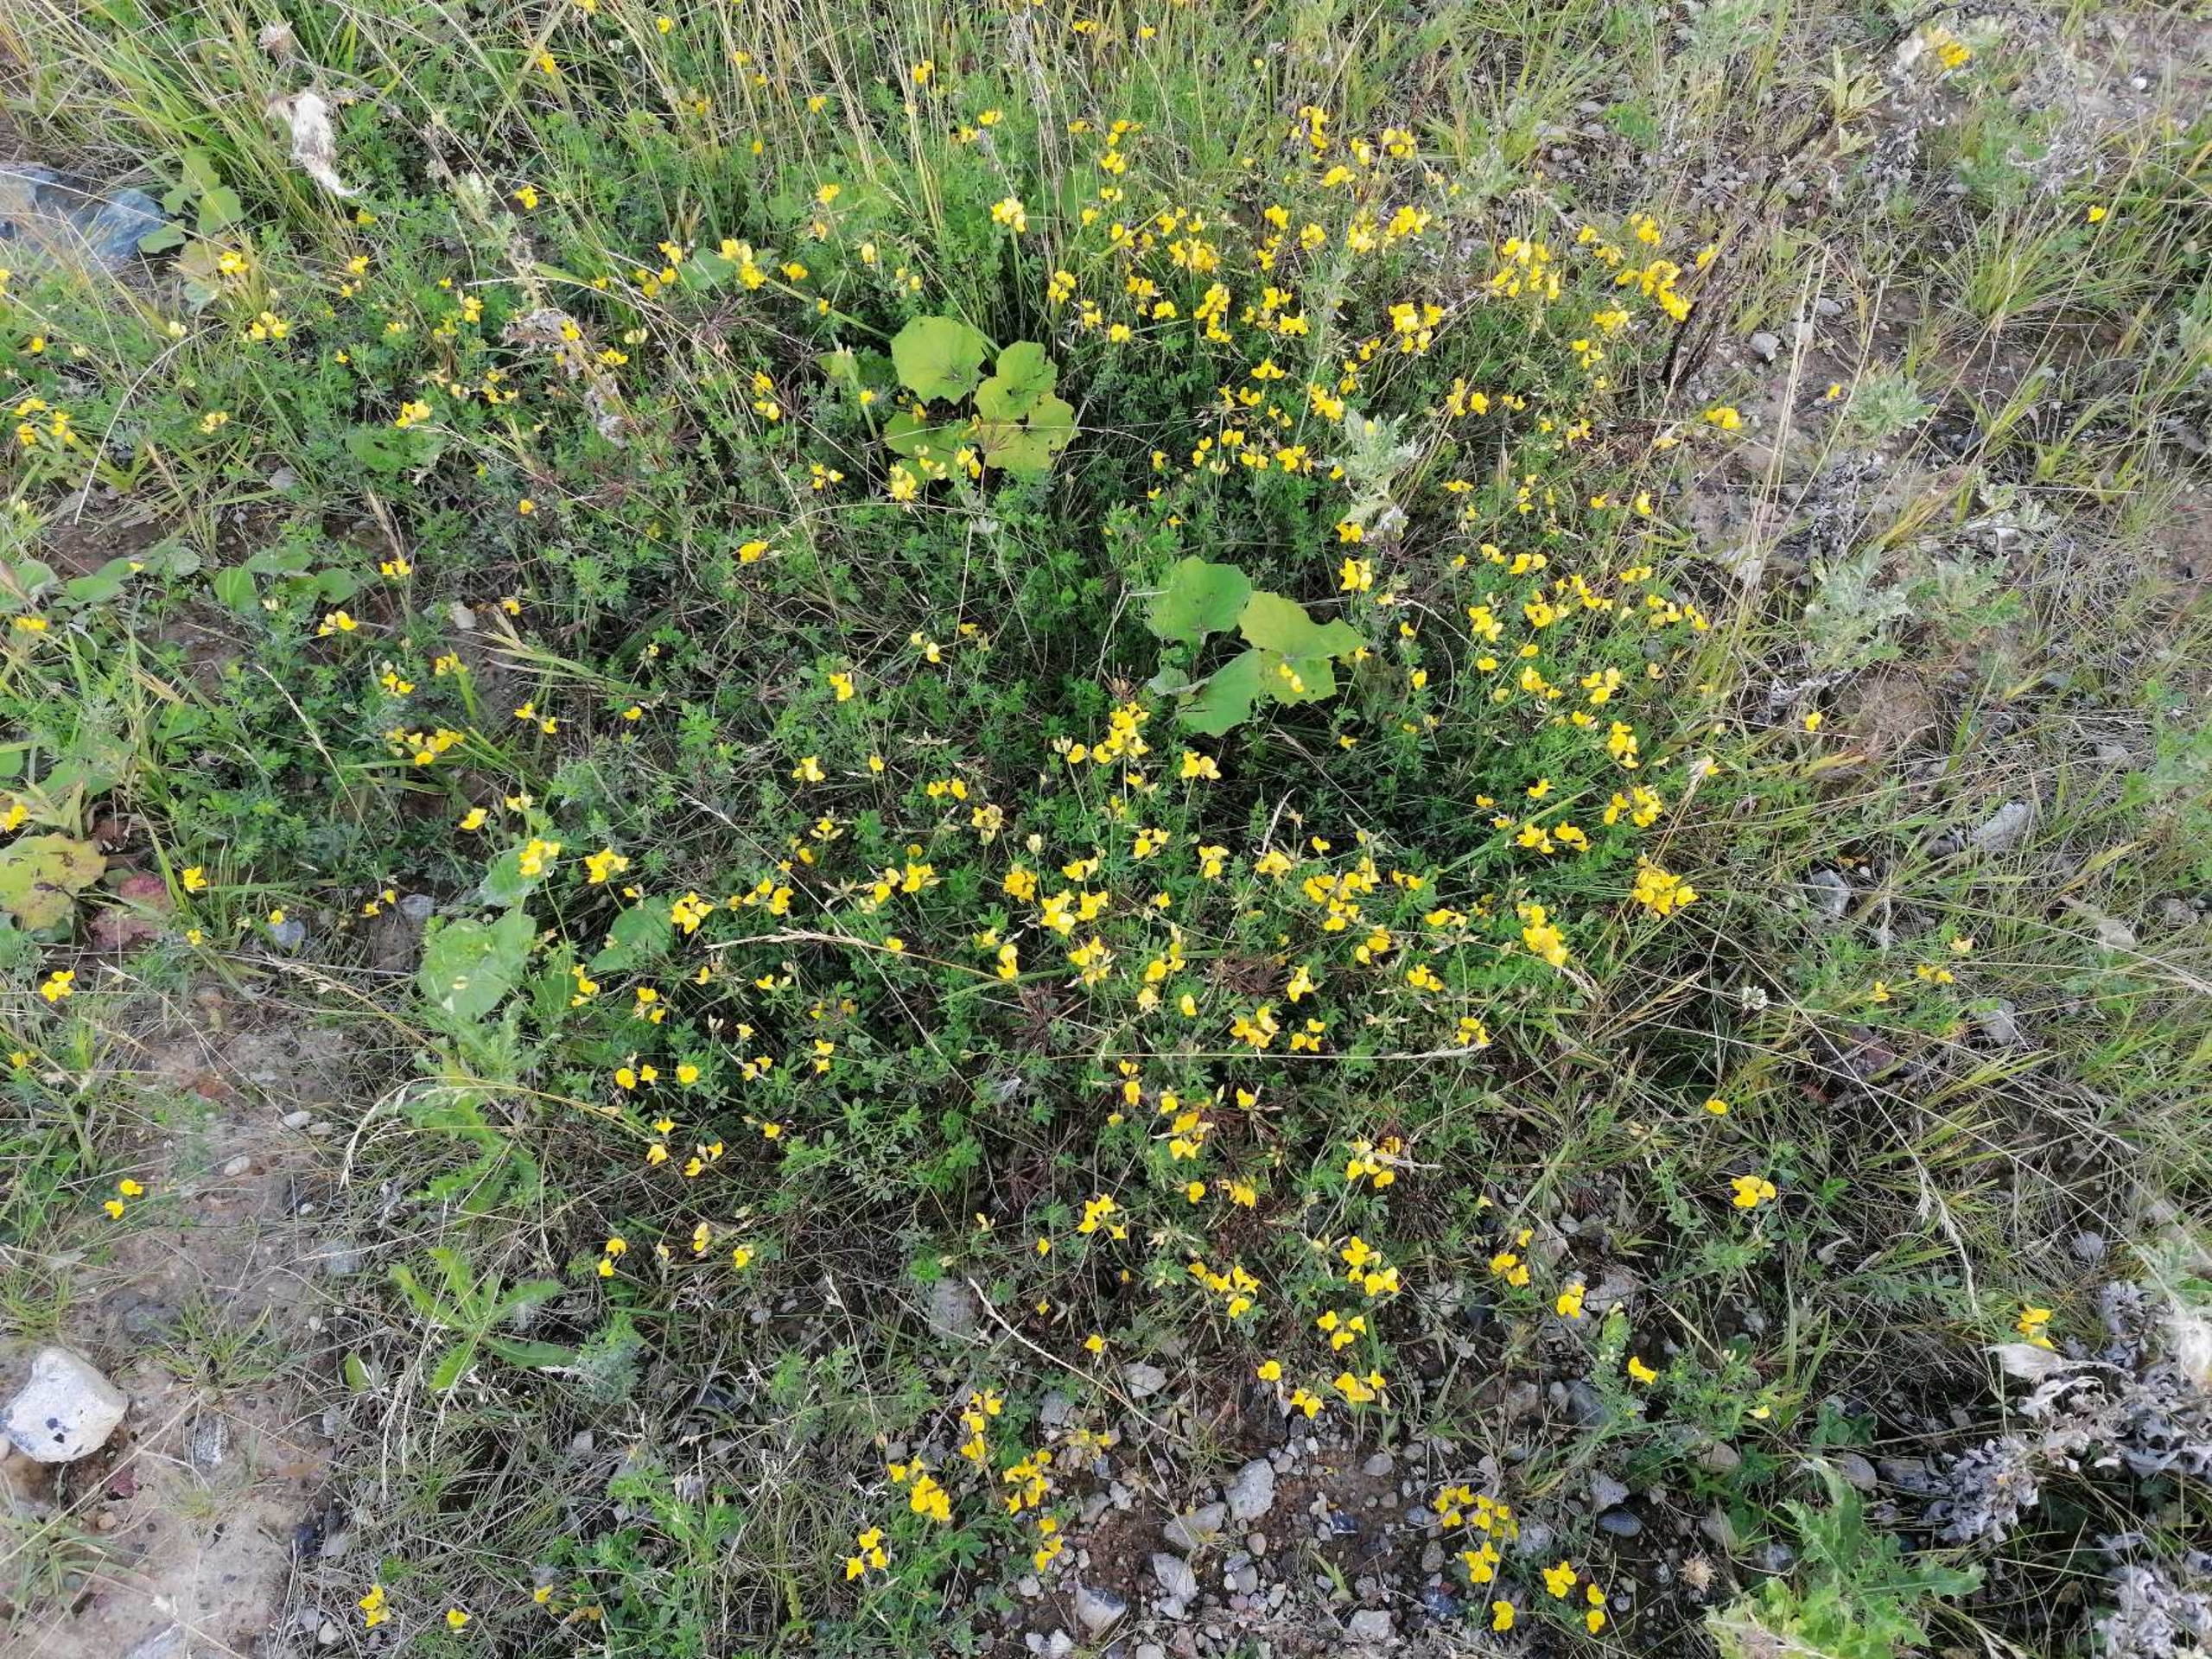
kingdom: Plantae
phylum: Tracheophyta
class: Magnoliopsida
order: Fabales
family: Fabaceae
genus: Lotus
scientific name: Lotus corniculatus
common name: Almindelig kællingetand
